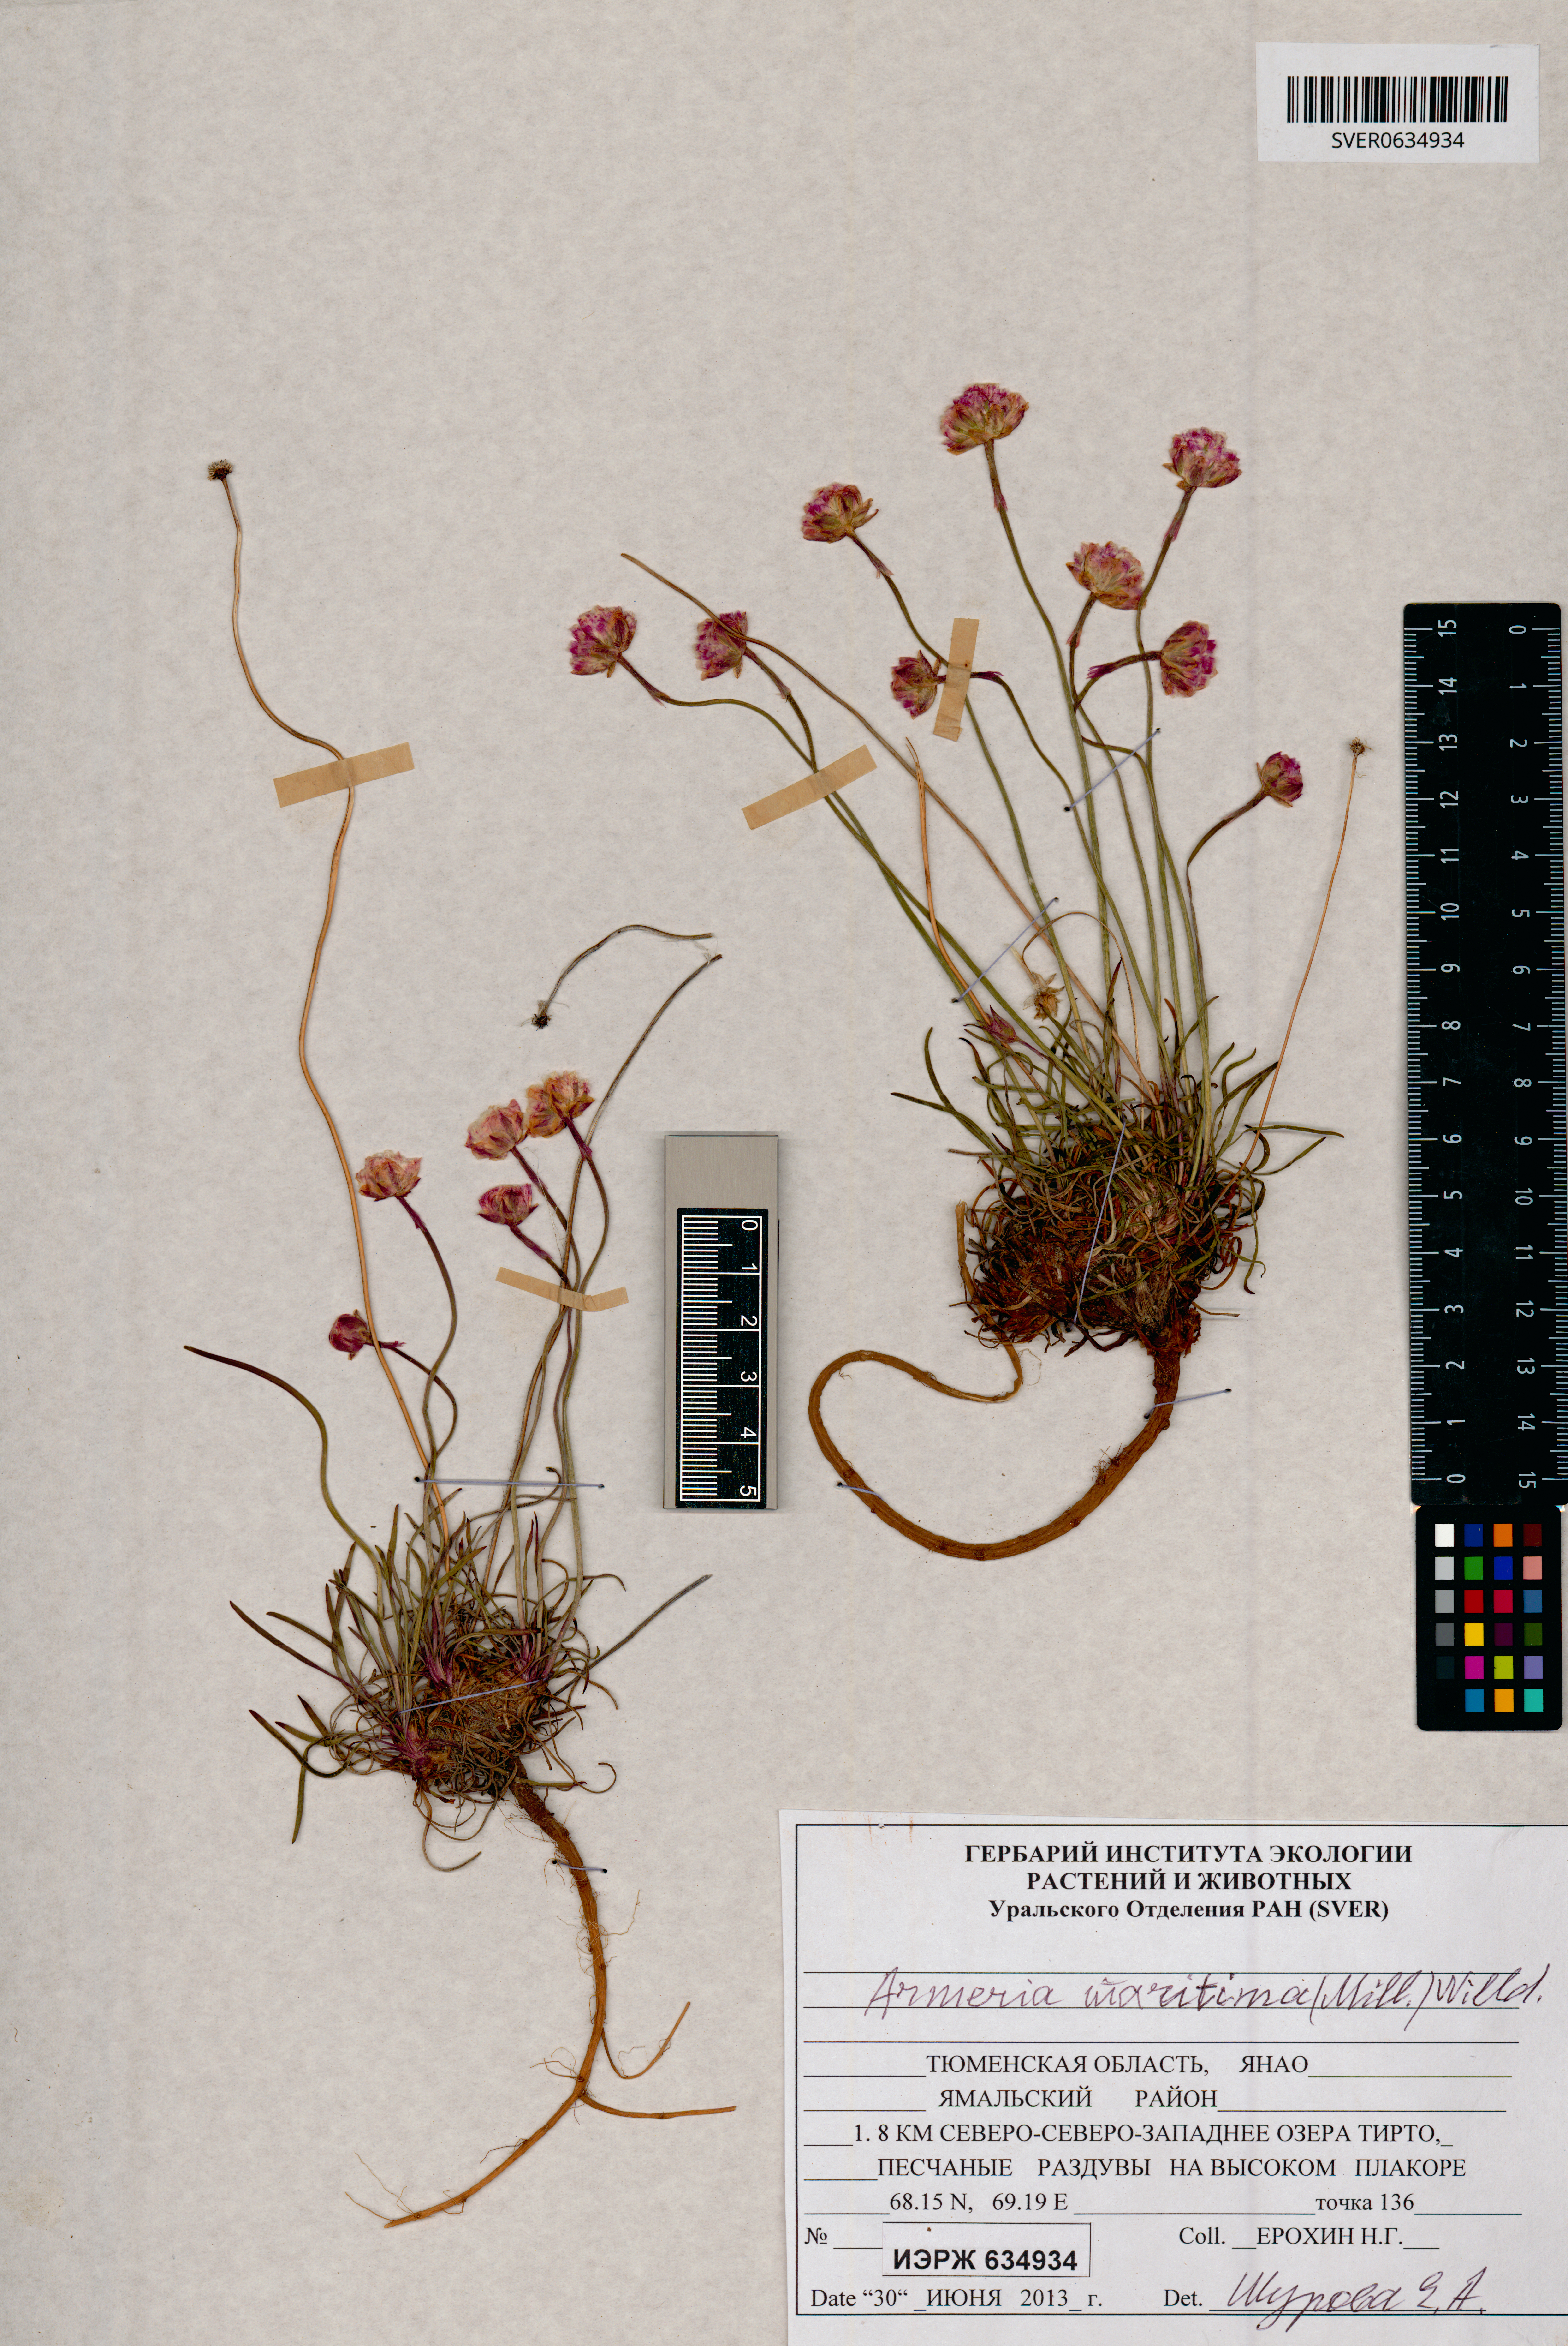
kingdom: Plantae
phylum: Tracheophyta
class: Magnoliopsida
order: Caryophyllales
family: Plumbaginaceae
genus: Armeria
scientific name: Armeria maritima
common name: Thrift
